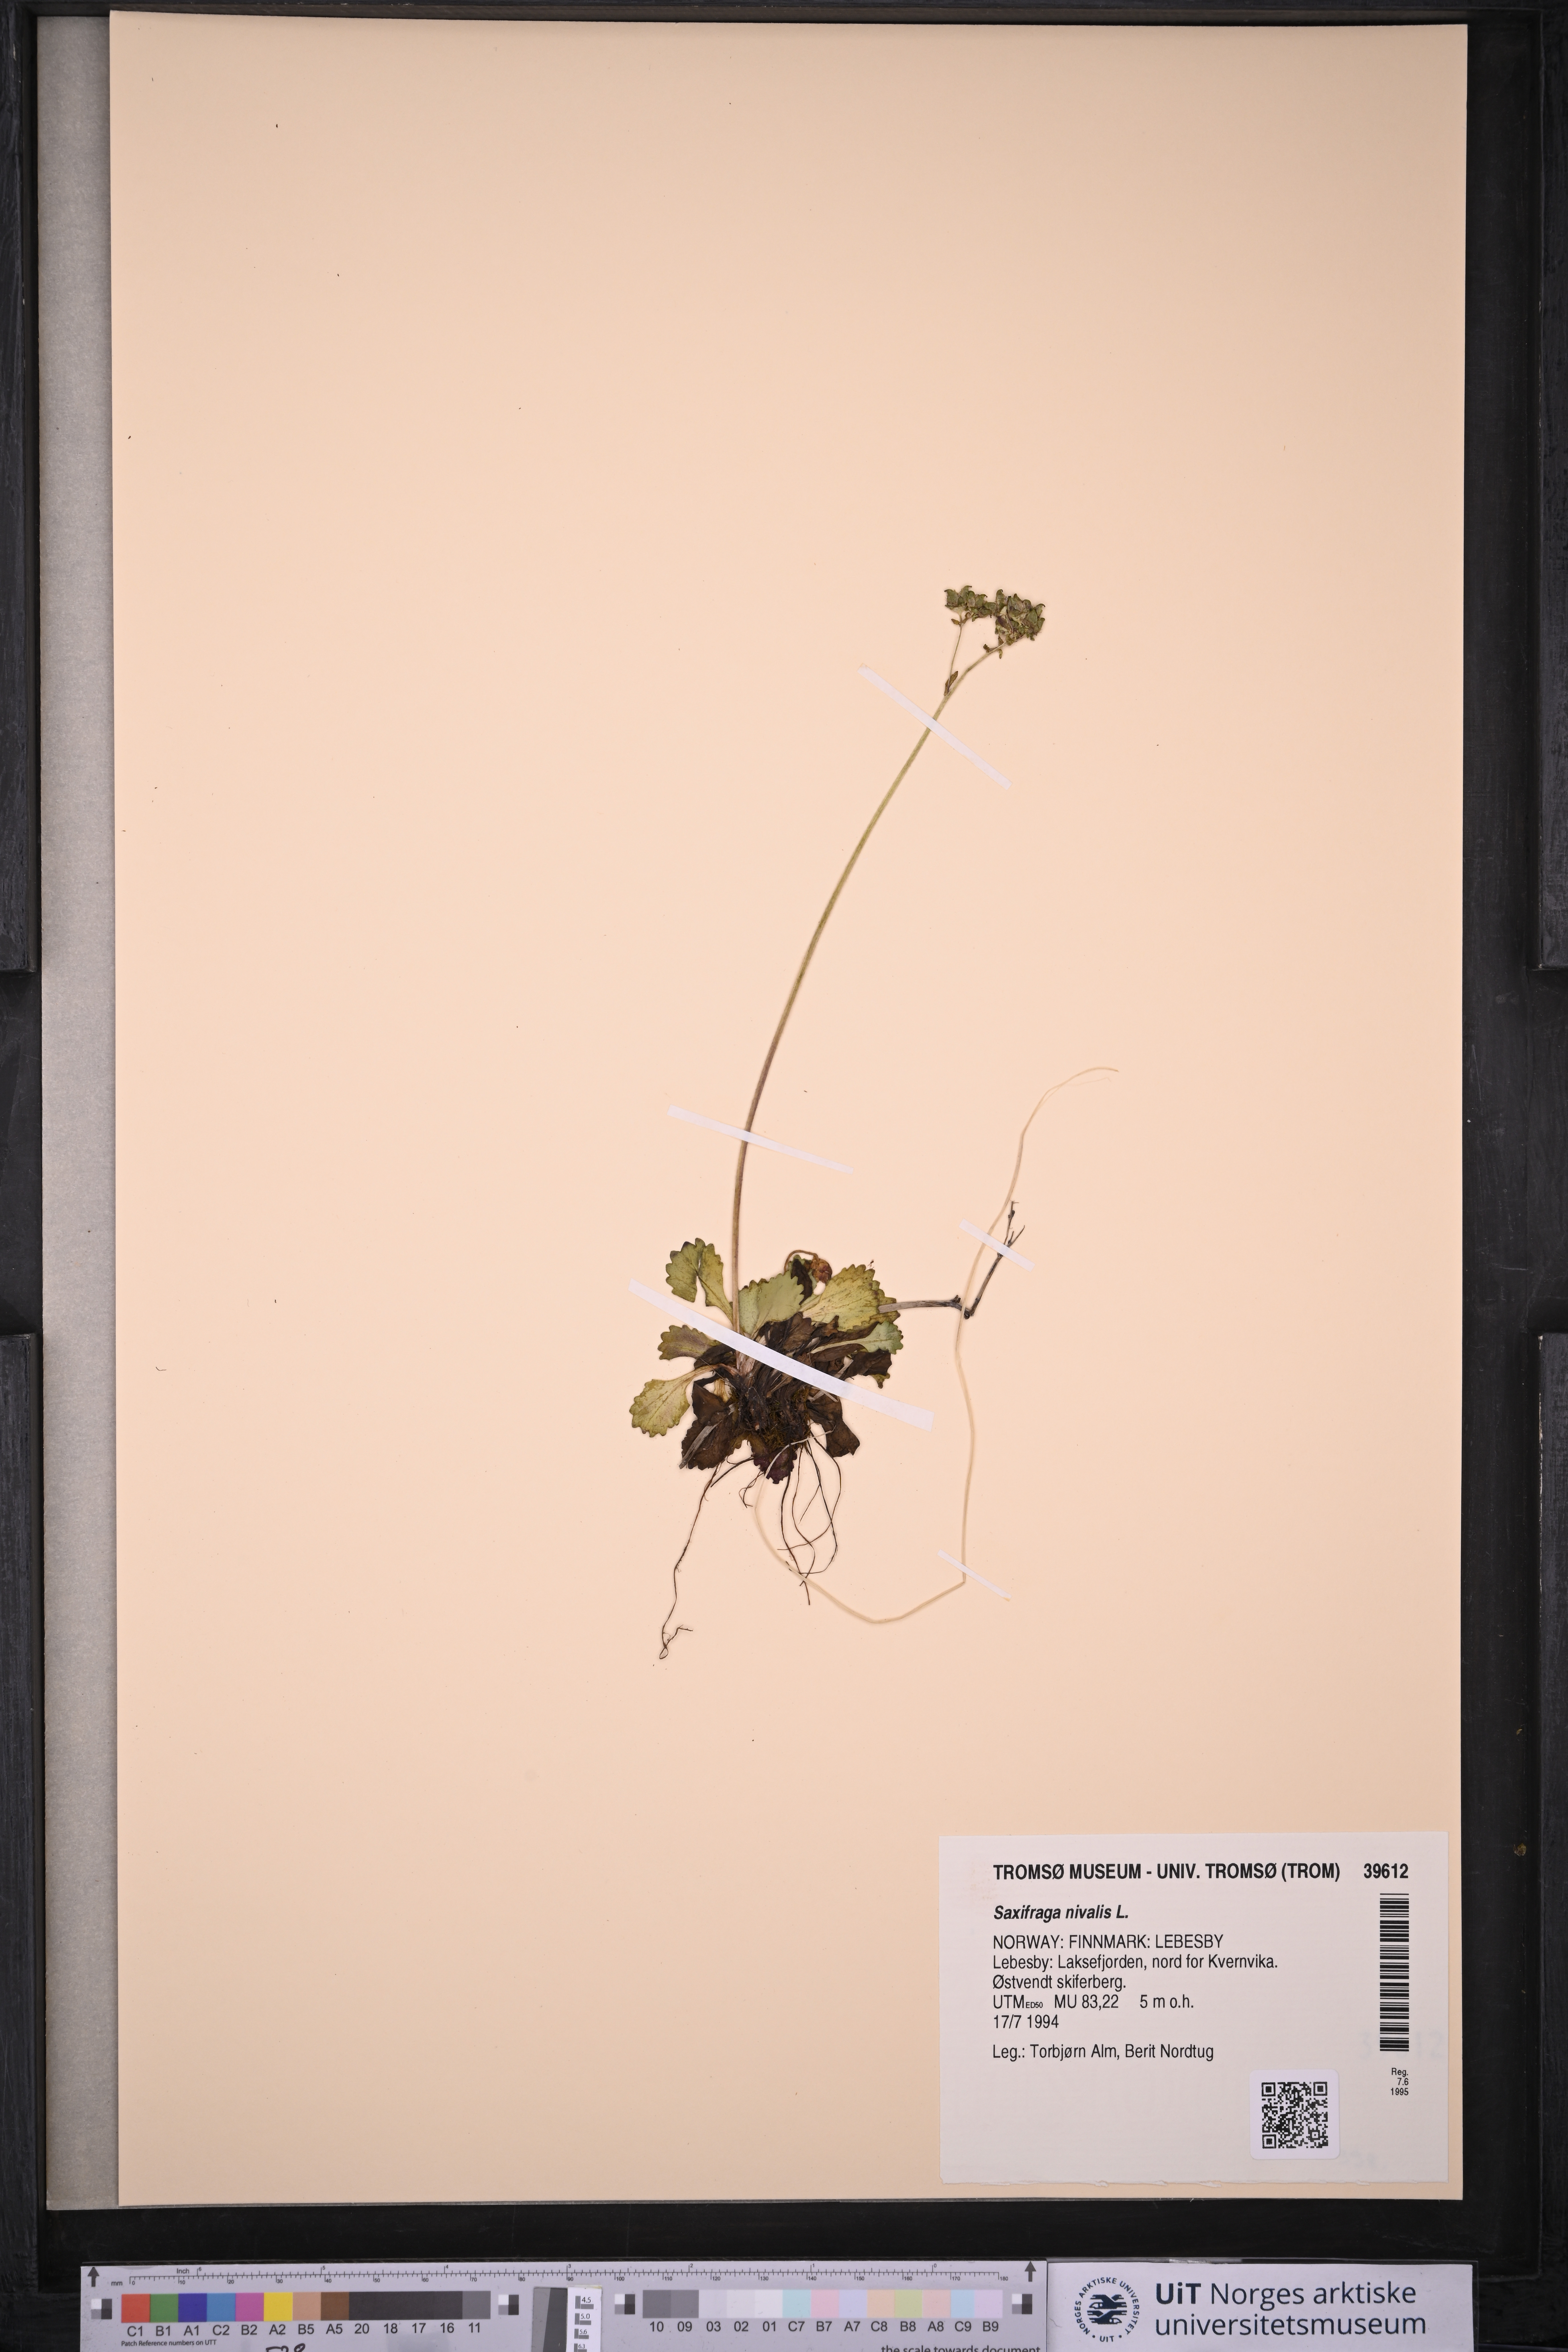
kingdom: Plantae
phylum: Tracheophyta
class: Magnoliopsida
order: Saxifragales
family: Saxifragaceae
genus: Micranthes
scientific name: Micranthes nivalis
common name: Alpine saxifrage
